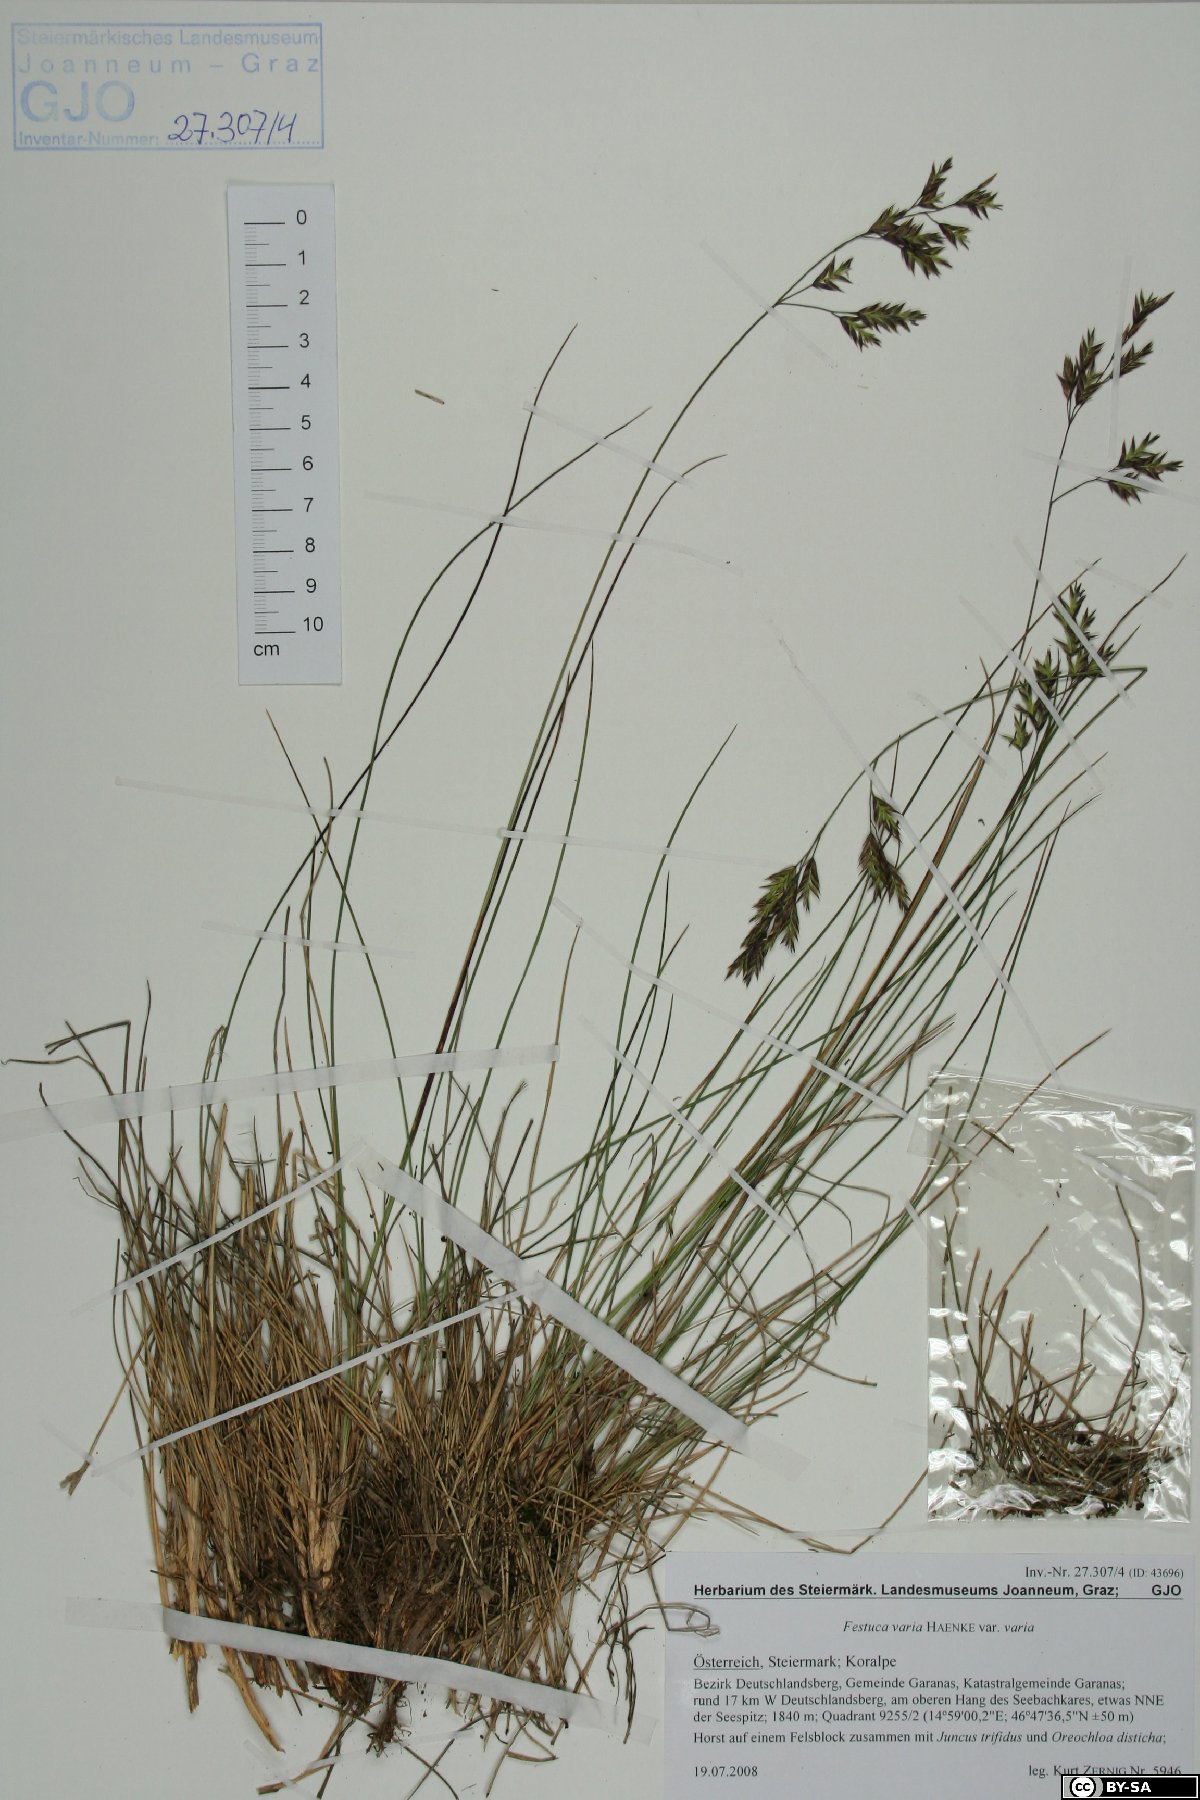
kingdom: Plantae
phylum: Tracheophyta
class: Liliopsida
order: Poales
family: Poaceae
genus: Festuca
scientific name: Festuca varia
